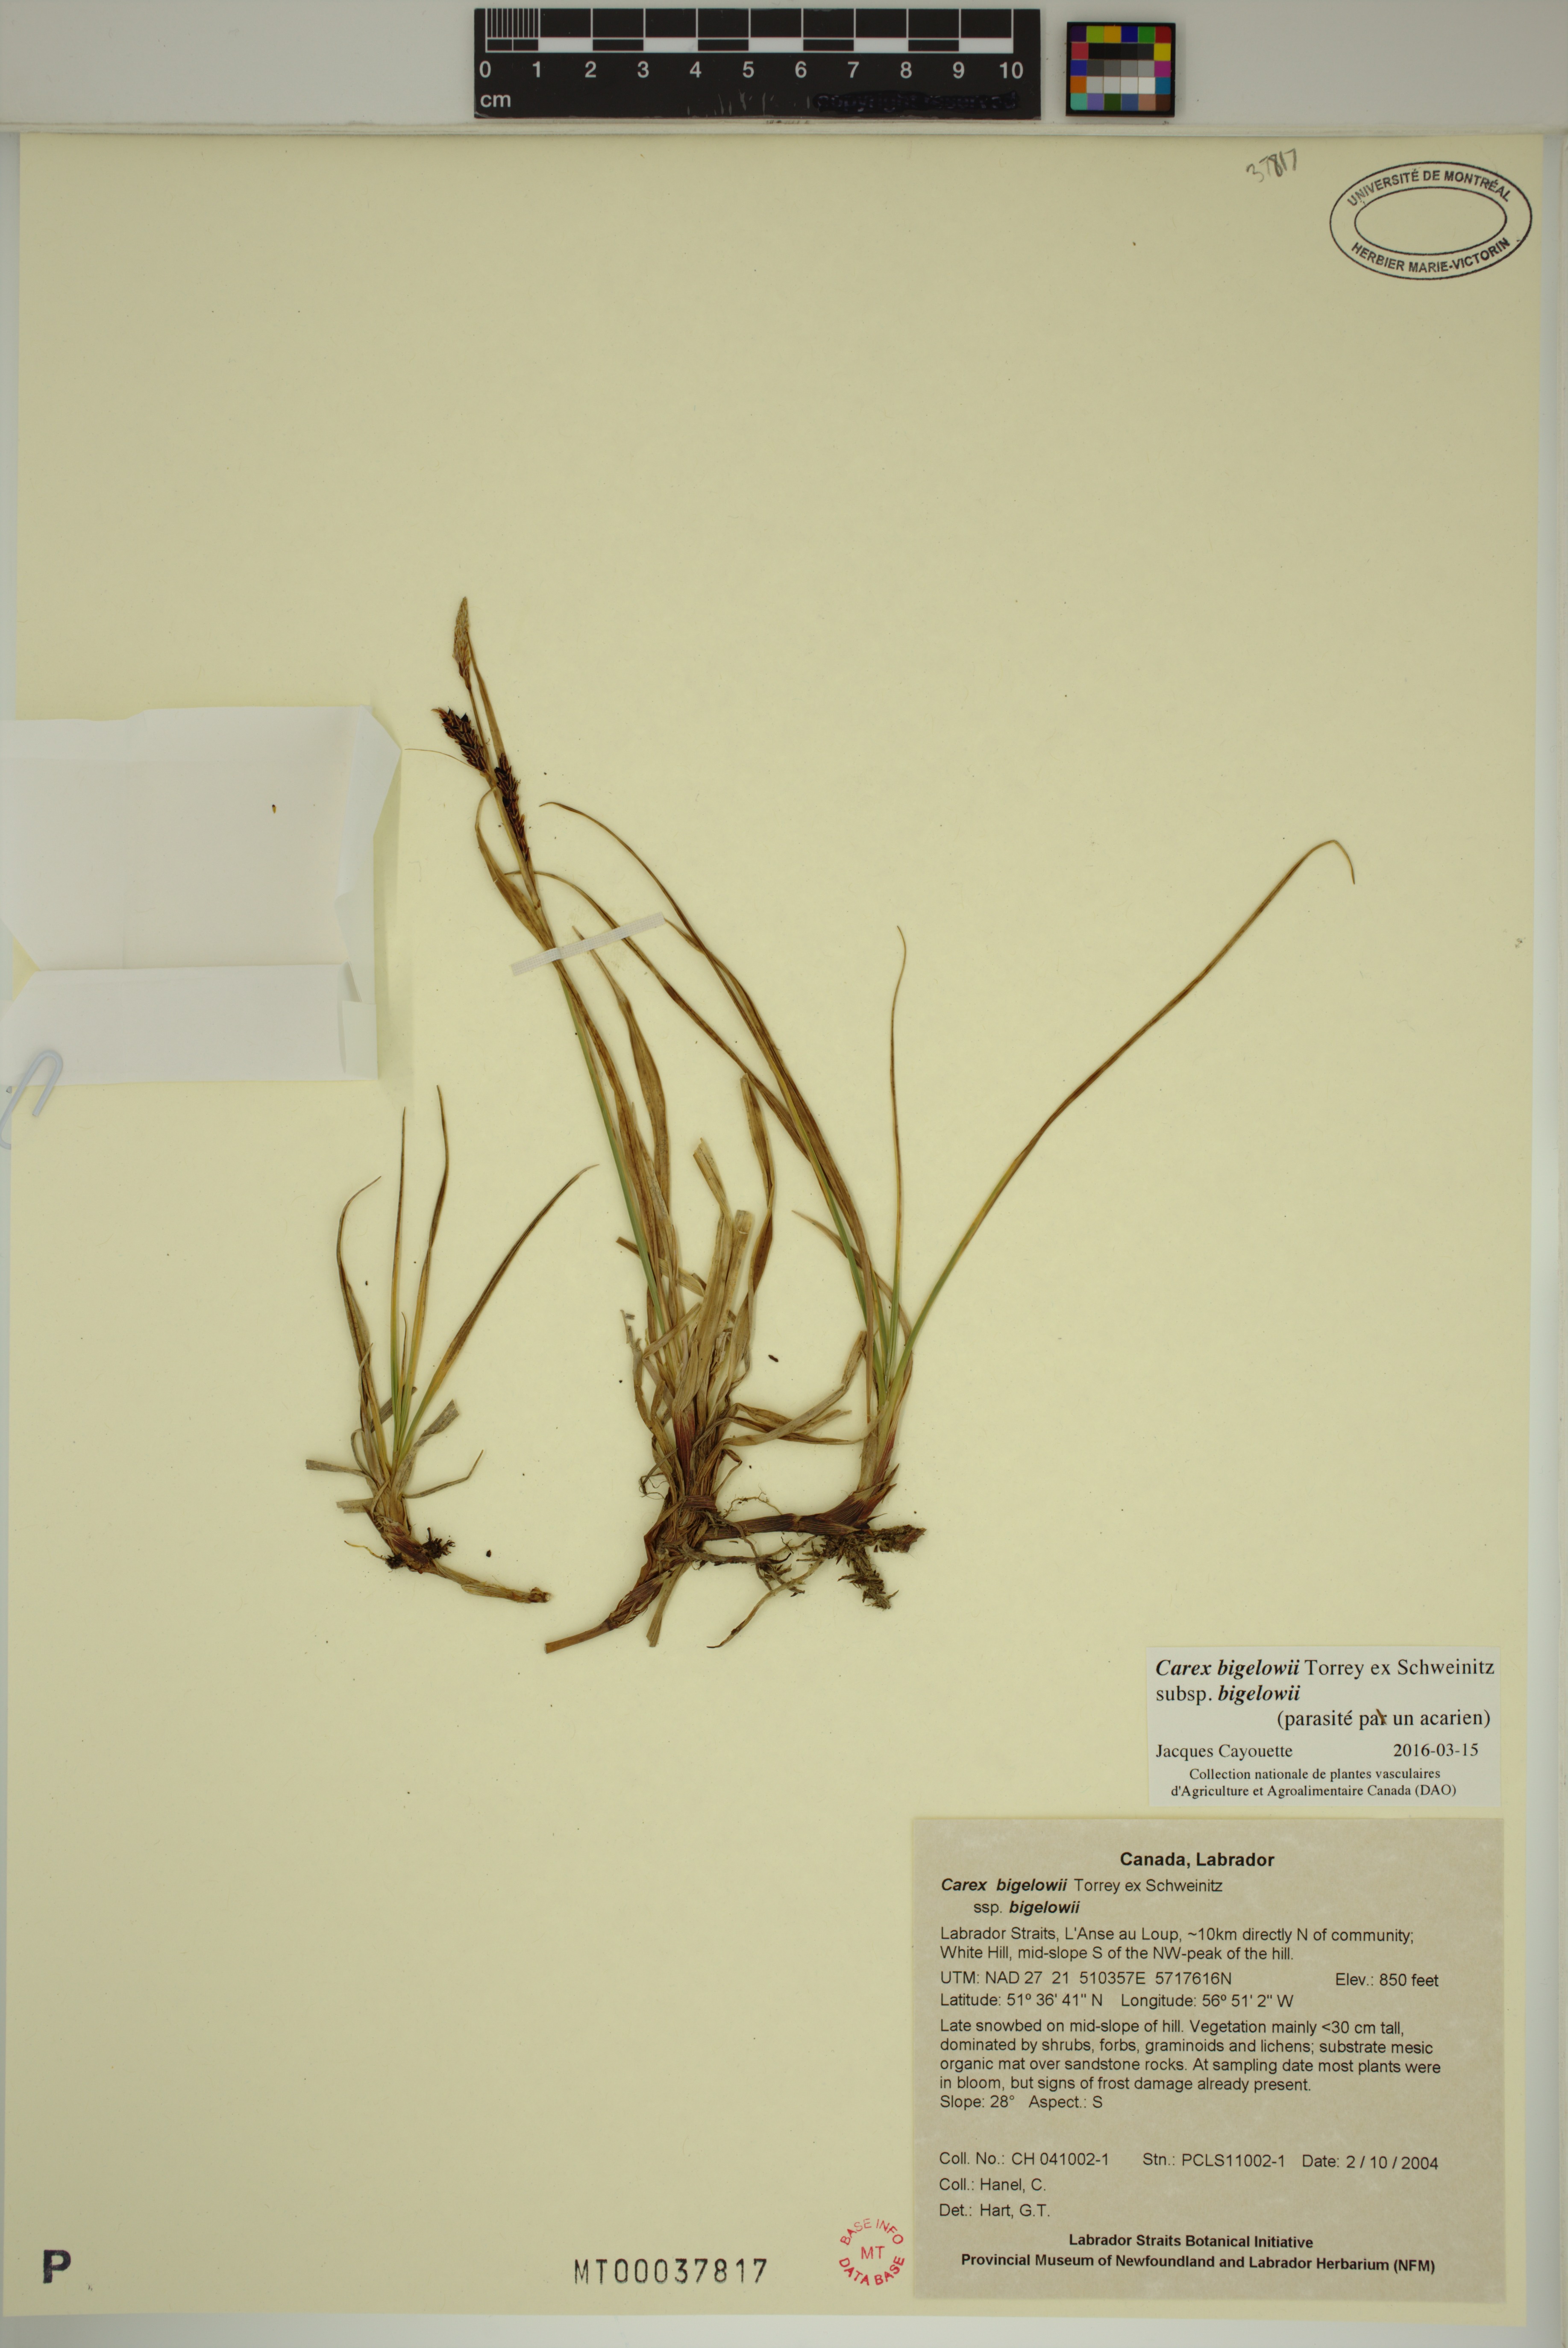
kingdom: Plantae
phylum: Tracheophyta
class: Liliopsida
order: Poales
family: Cyperaceae
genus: Carex
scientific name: Carex bigelowii
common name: Stiff sedge
